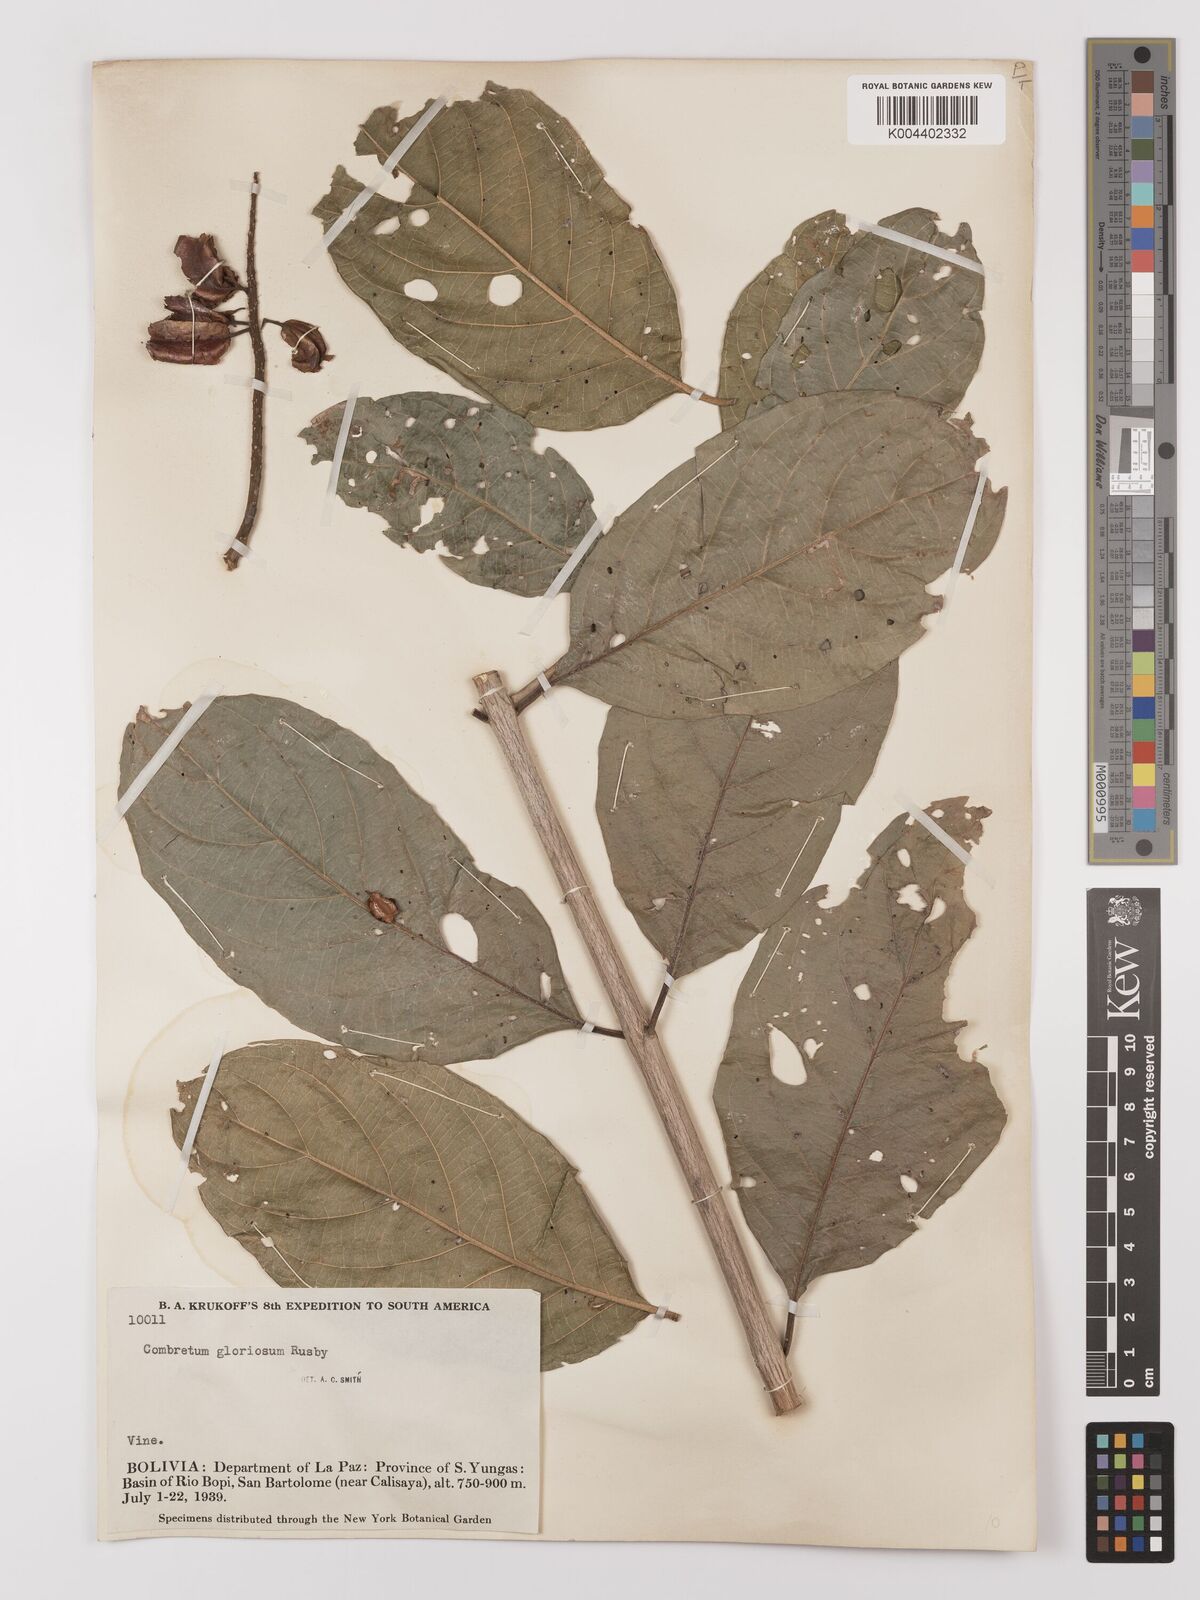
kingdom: Plantae
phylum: Tracheophyta
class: Magnoliopsida
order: Myrtales
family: Combretaceae
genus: Combretum
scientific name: Combretum fruticosum
